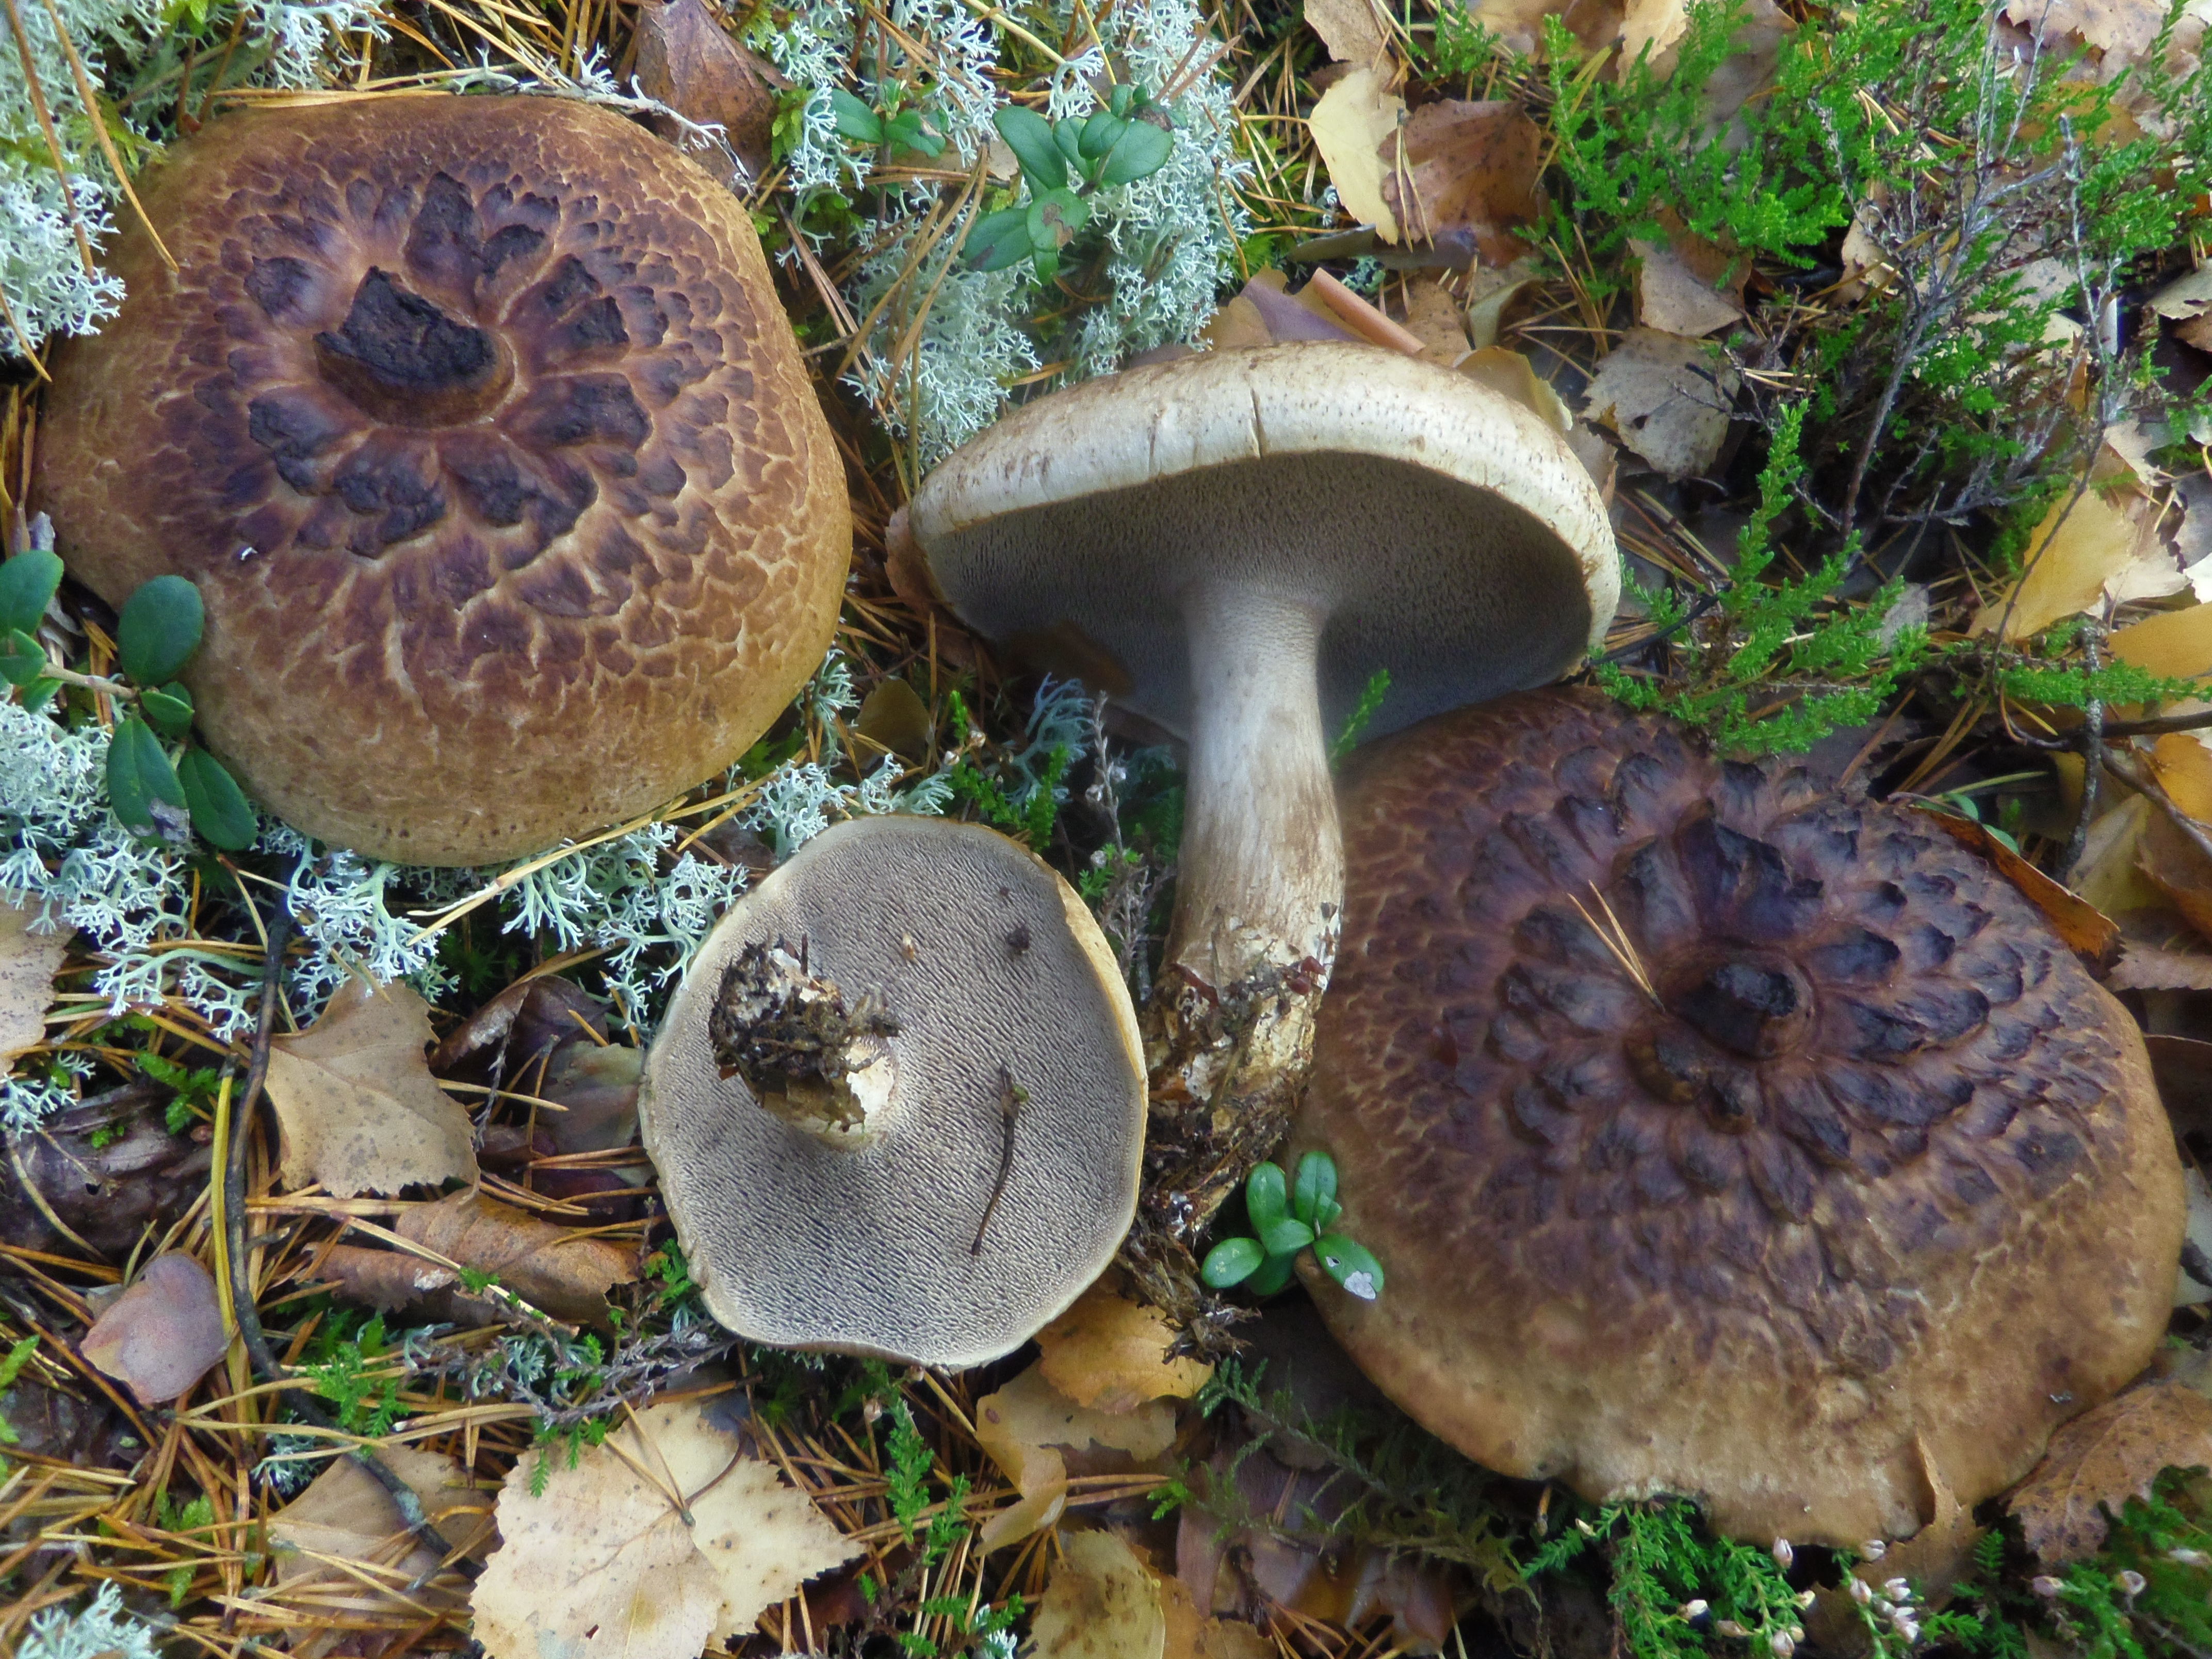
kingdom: Fungi
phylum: Basidiomycota
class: Agaricomycetes
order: Thelephorales
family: Bankeraceae
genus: Sarcodon
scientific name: Sarcodon squamosus
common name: Scaly tooth
